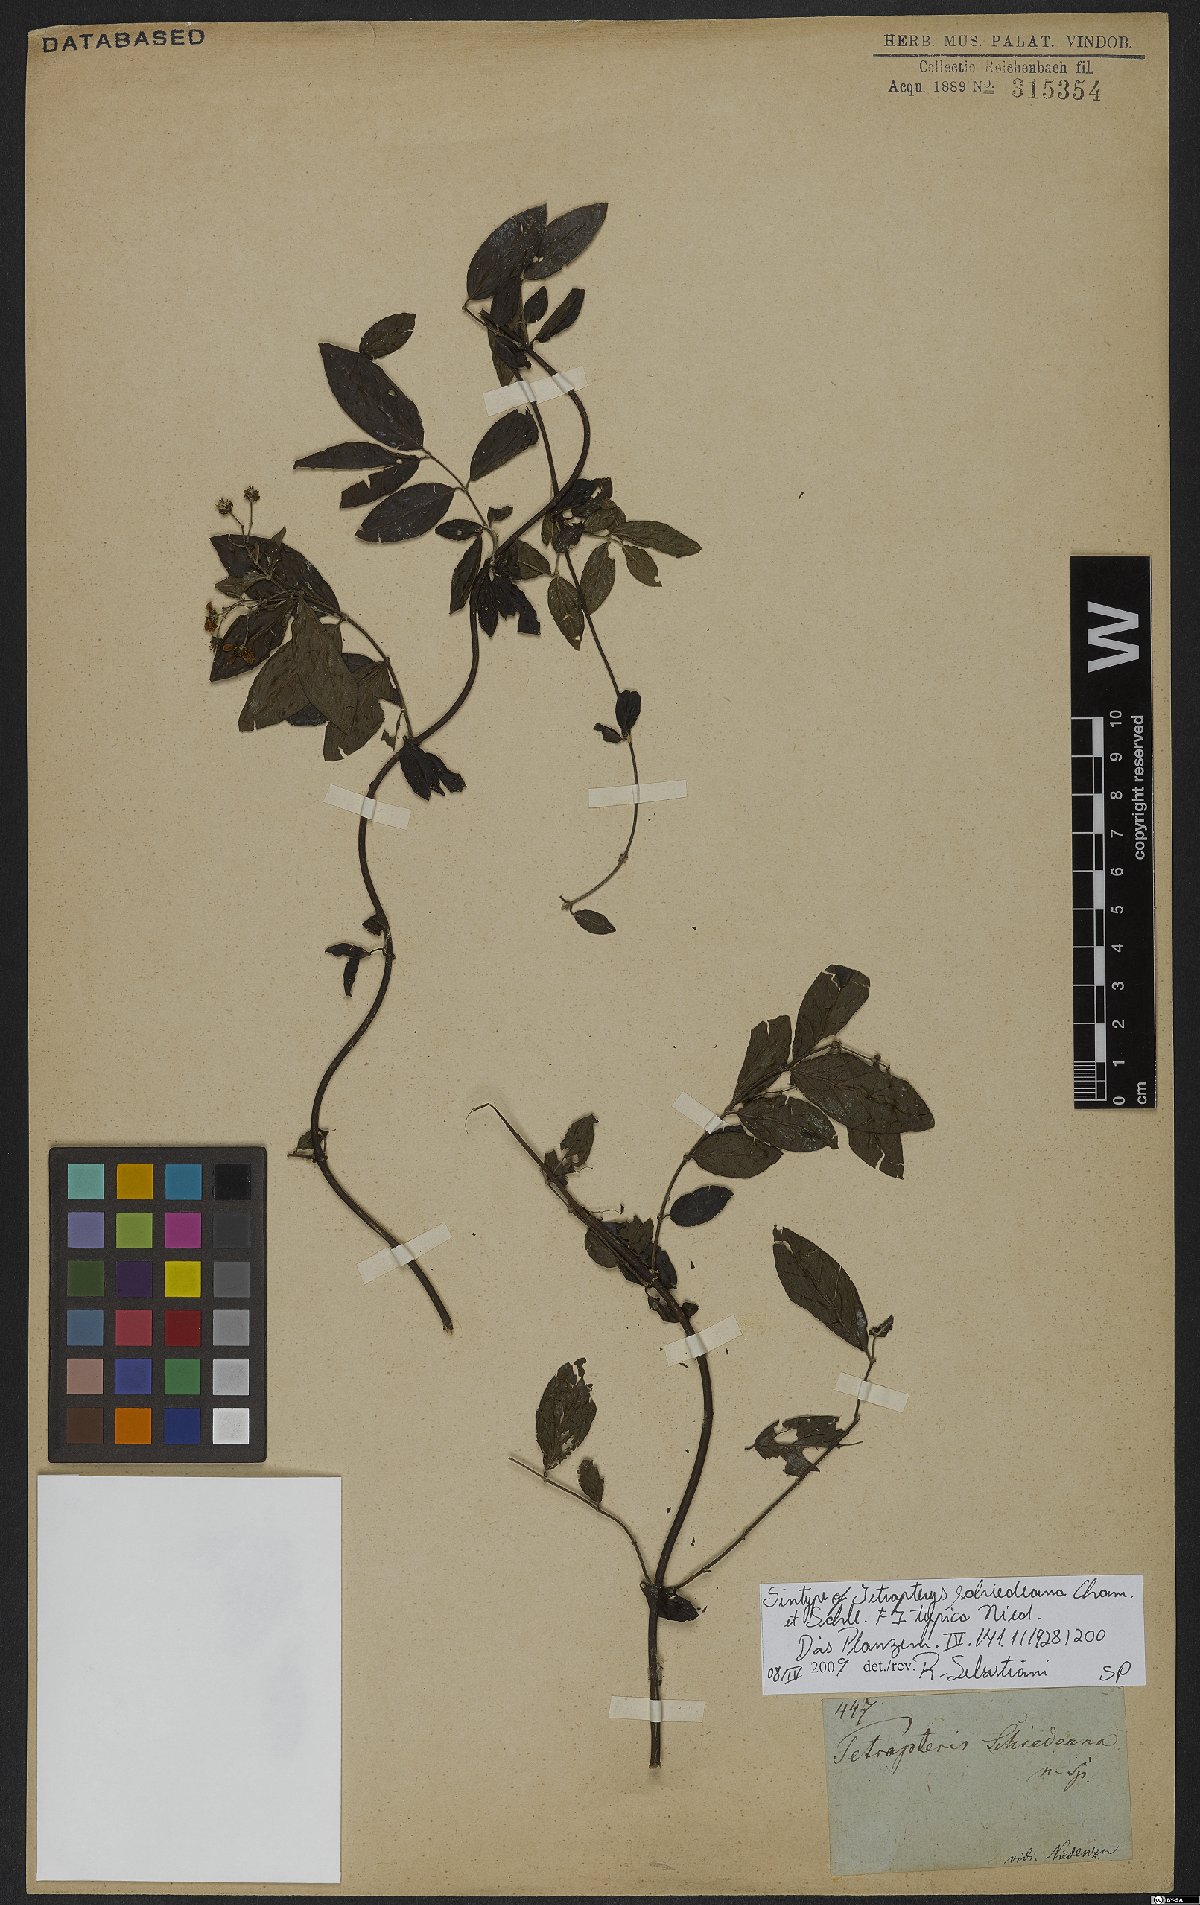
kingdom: Plantae
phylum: Tracheophyta
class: Magnoliopsida
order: Malpighiales
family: Malpighiaceae
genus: Tetrapterys
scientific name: Tetrapterys schiedeana
